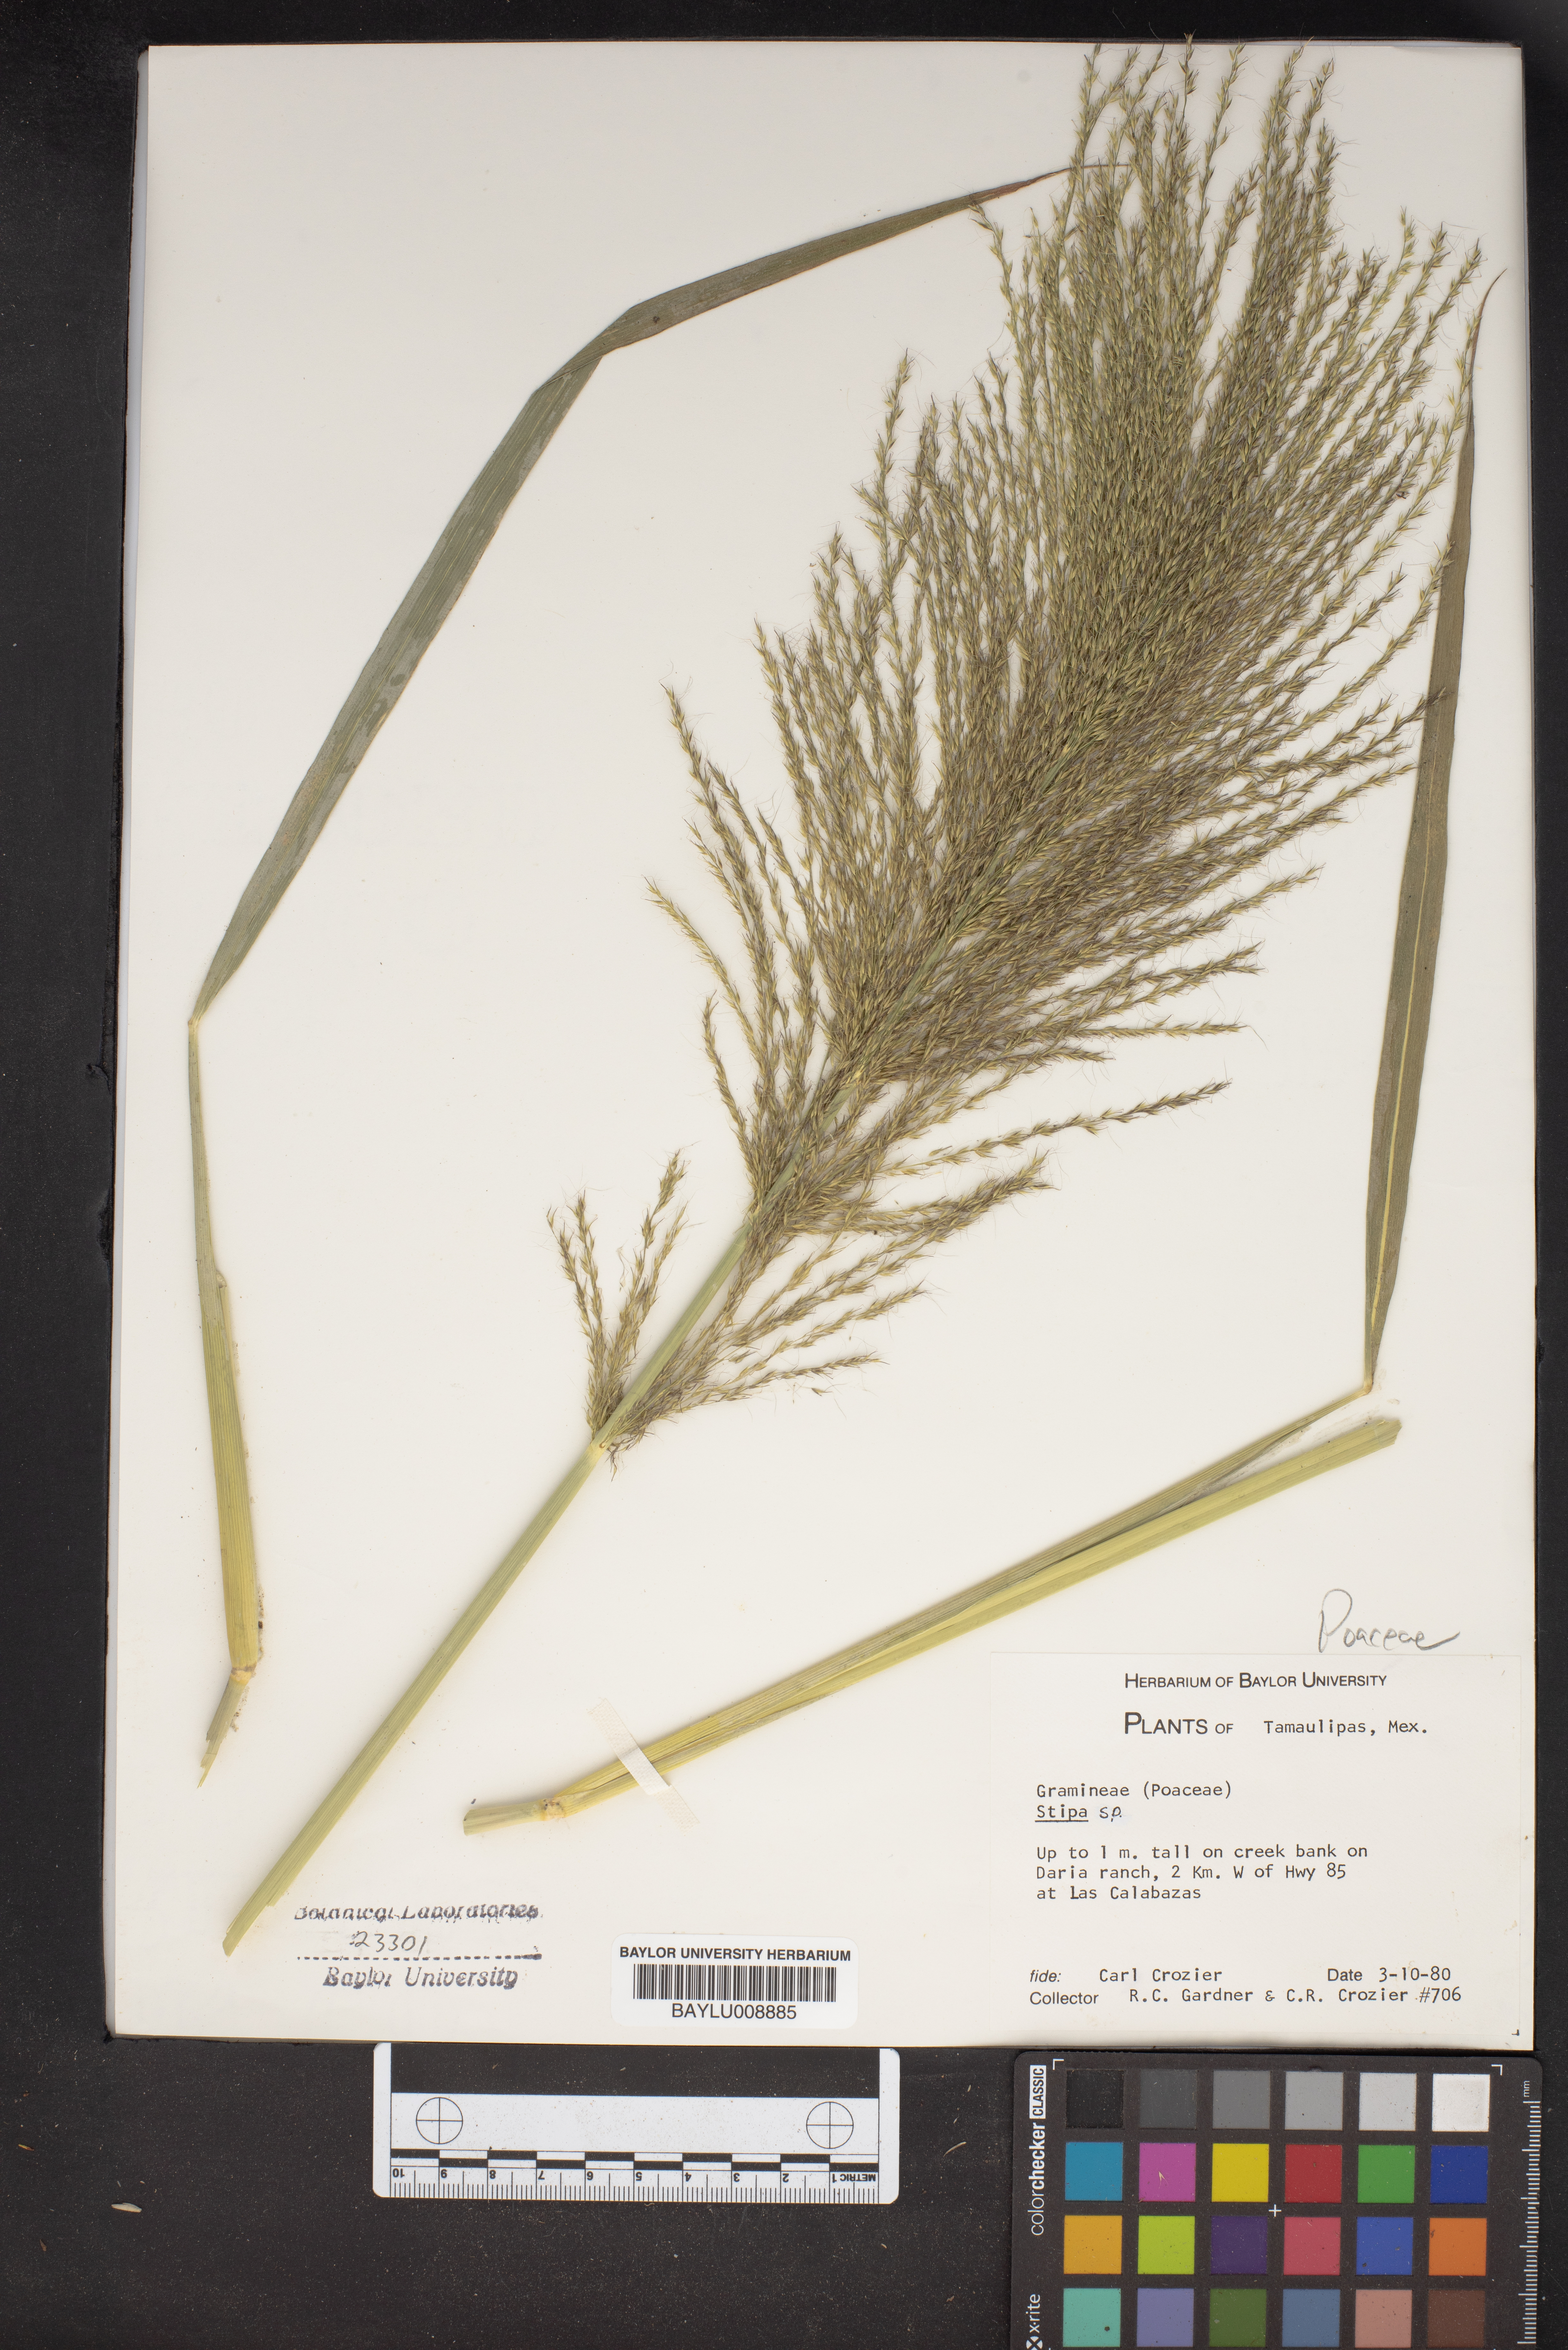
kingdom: Plantae
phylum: Tracheophyta
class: Liliopsida
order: Poales
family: Poaceae
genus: Stipa
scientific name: Stipa
